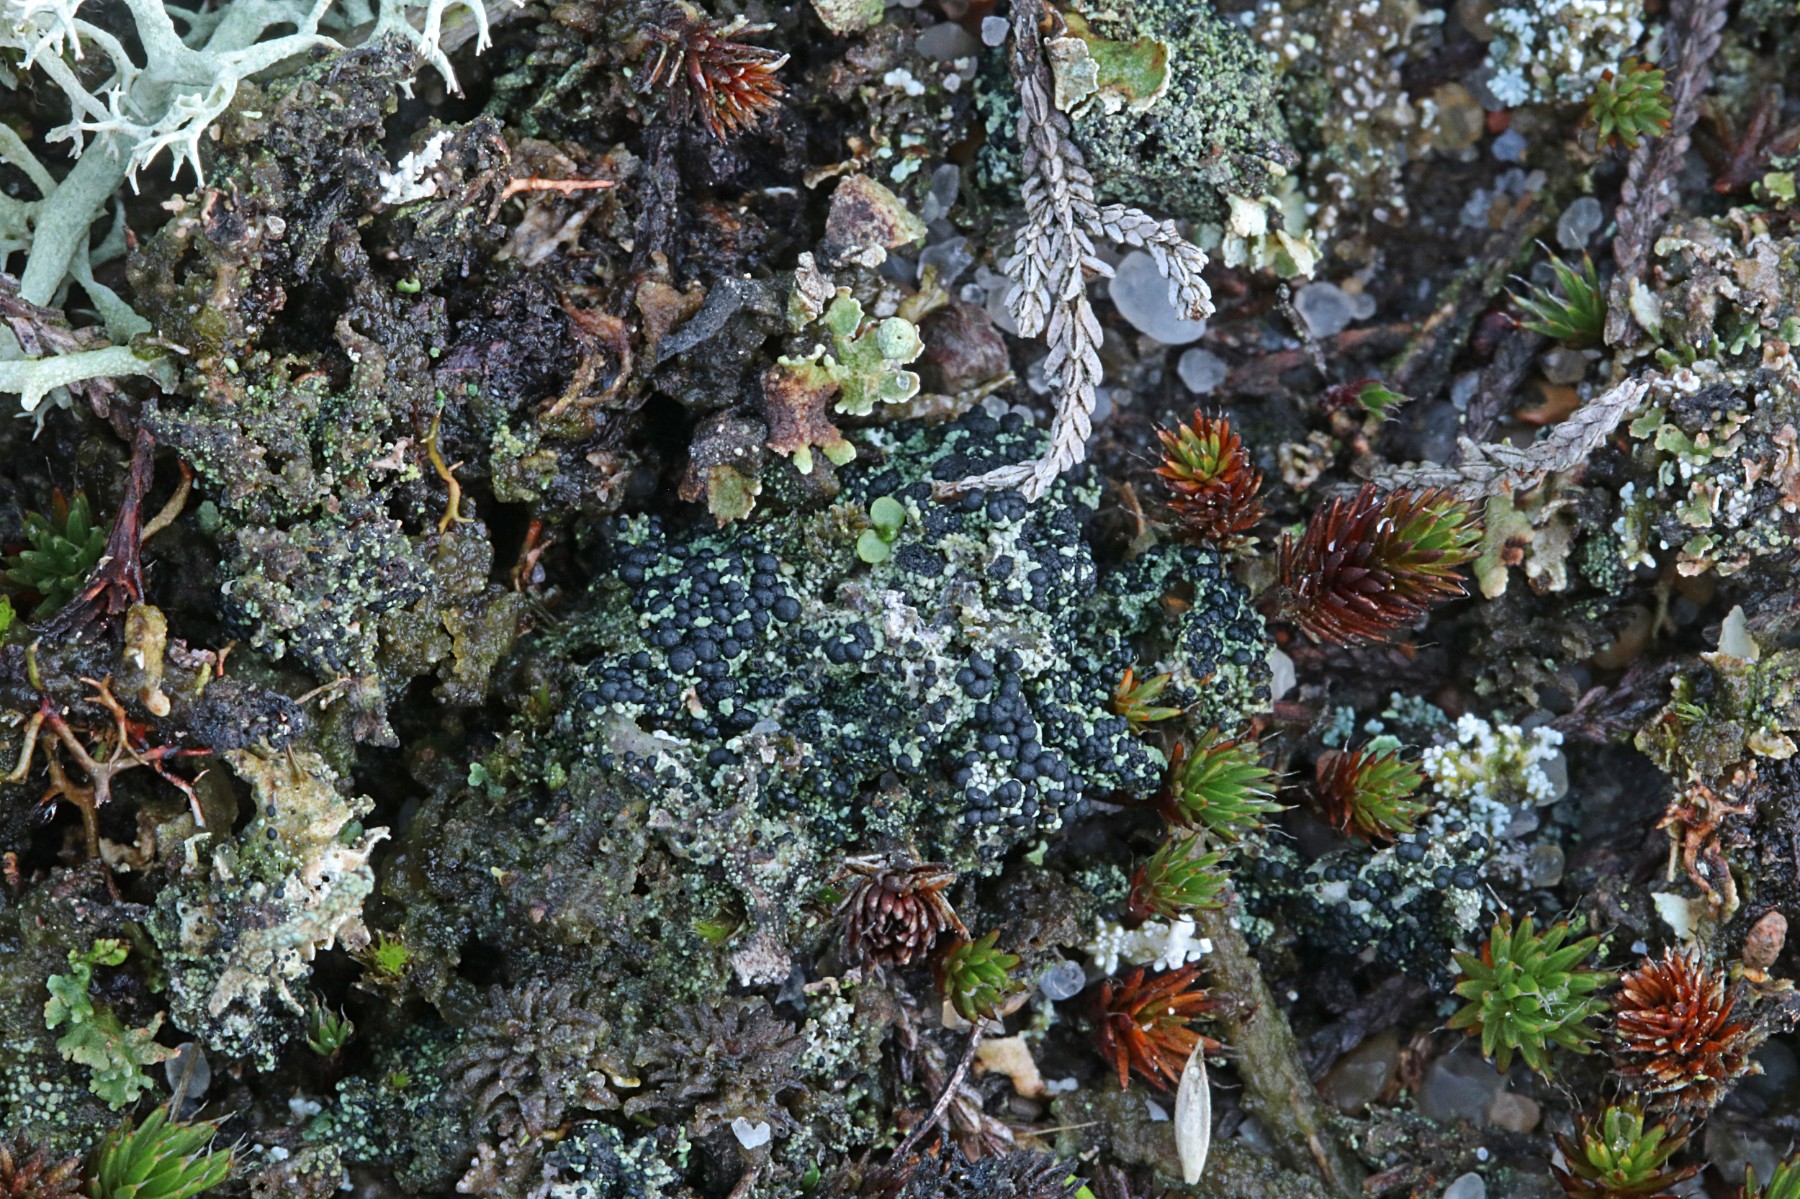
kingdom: Fungi
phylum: Ascomycota
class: Lecanoromycetes
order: Lecanorales
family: Byssolomataceae
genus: Micarea
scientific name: Micarea lignaria
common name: tørve-knaplav
